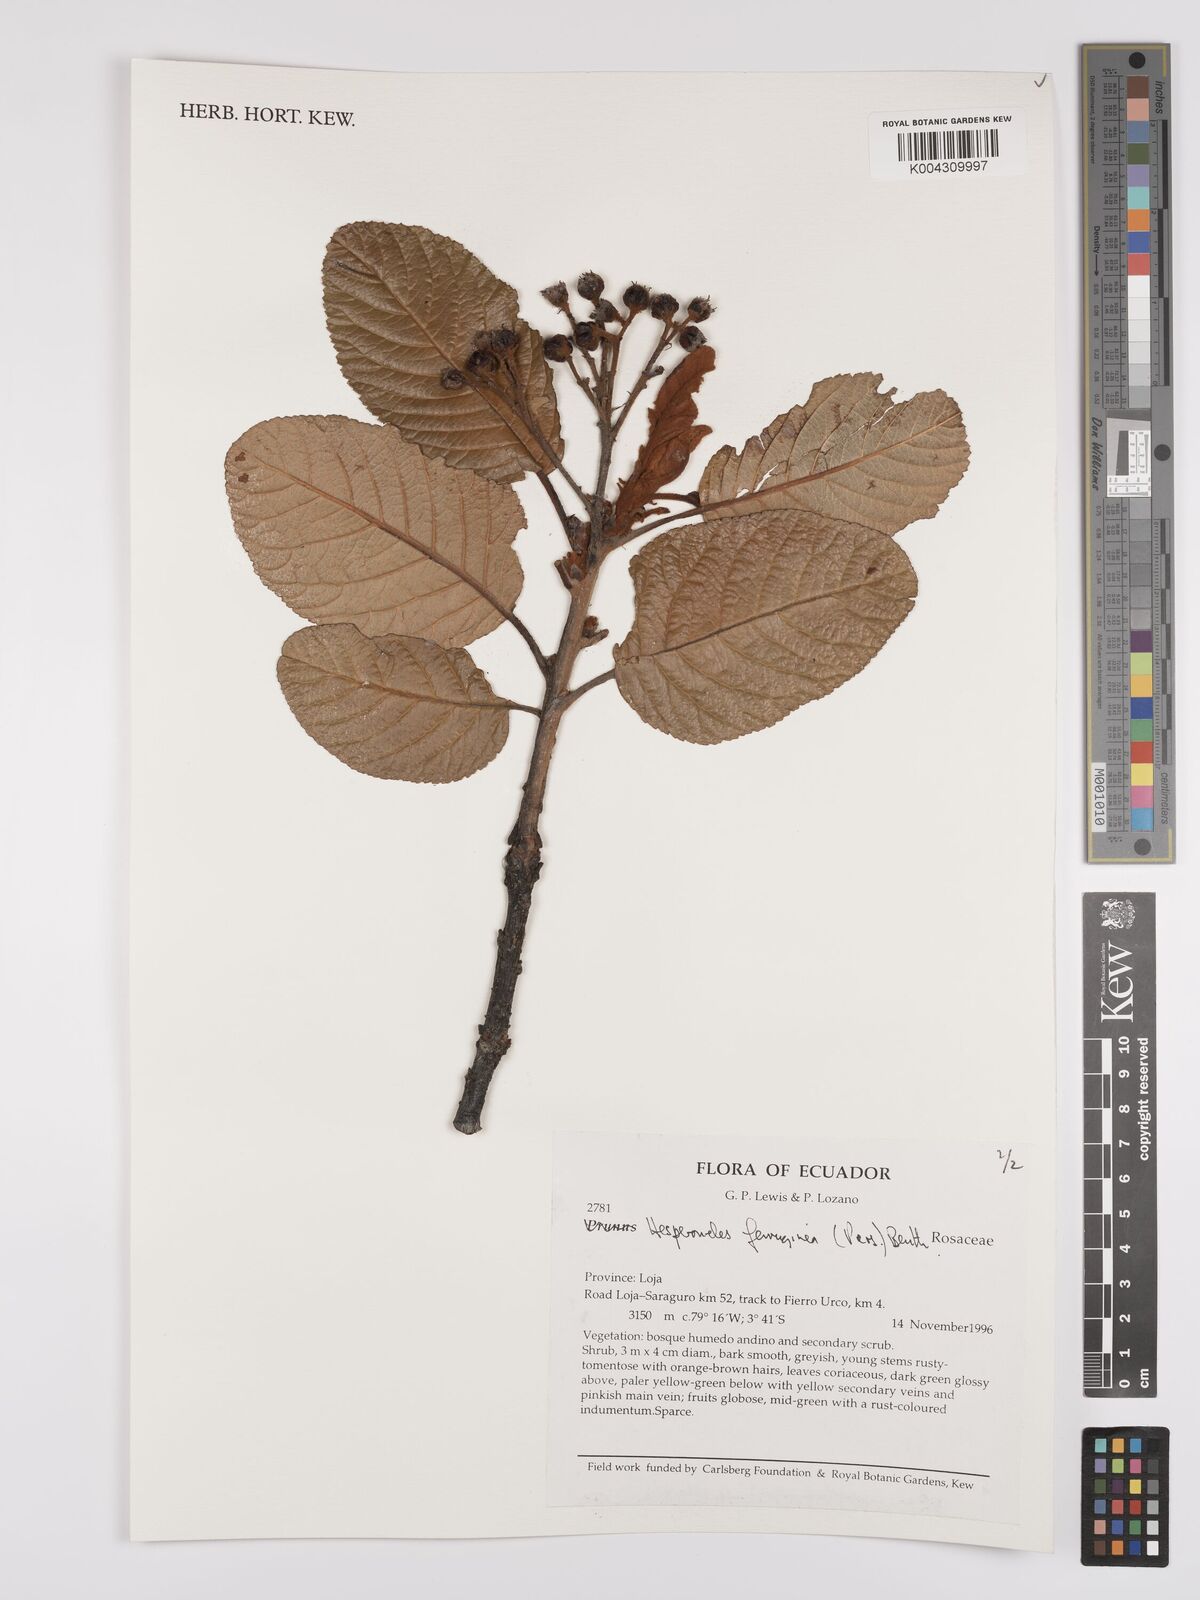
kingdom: Plantae
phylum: Tracheophyta
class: Magnoliopsida
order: Rosales
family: Rosaceae
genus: Hesperomeles
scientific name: Hesperomeles ferruginea
